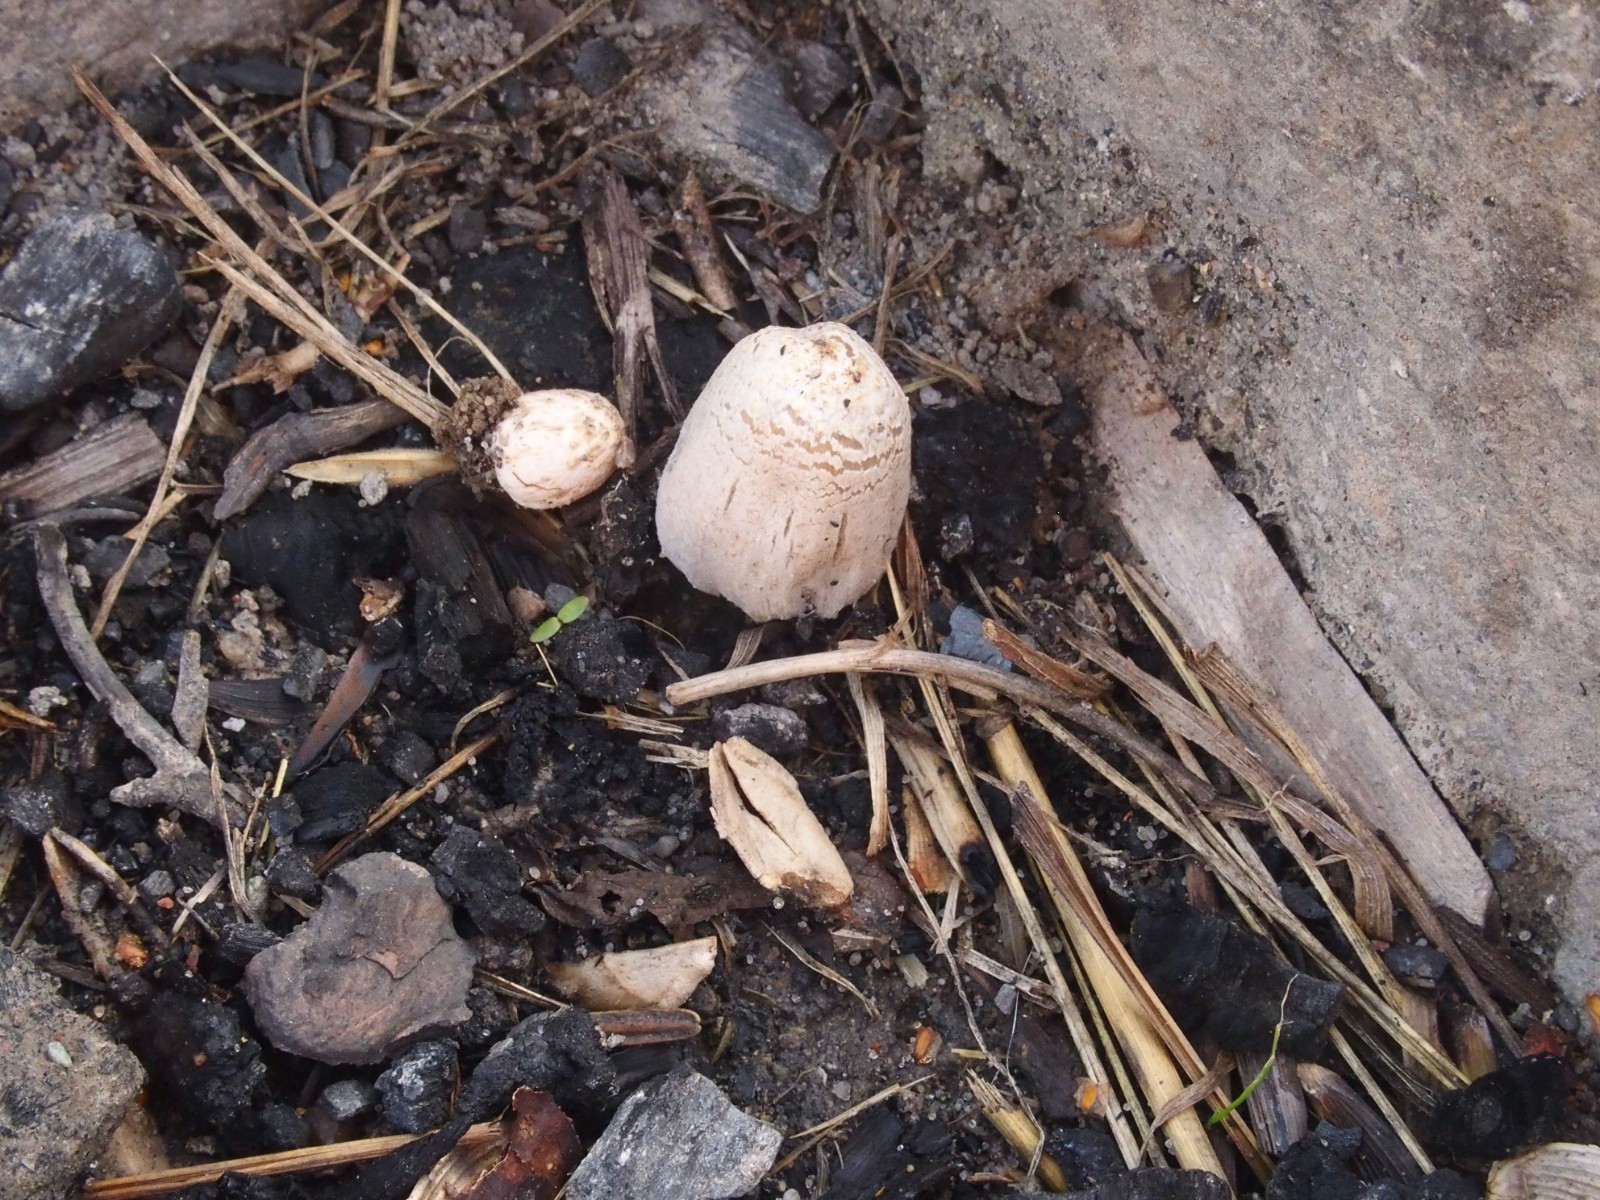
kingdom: Fungi
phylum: Basidiomycota
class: Agaricomycetes
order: Agaricales
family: Psathyrellaceae
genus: Coprinopsis
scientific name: Coprinopsis gonophylla
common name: bål-blækhat
